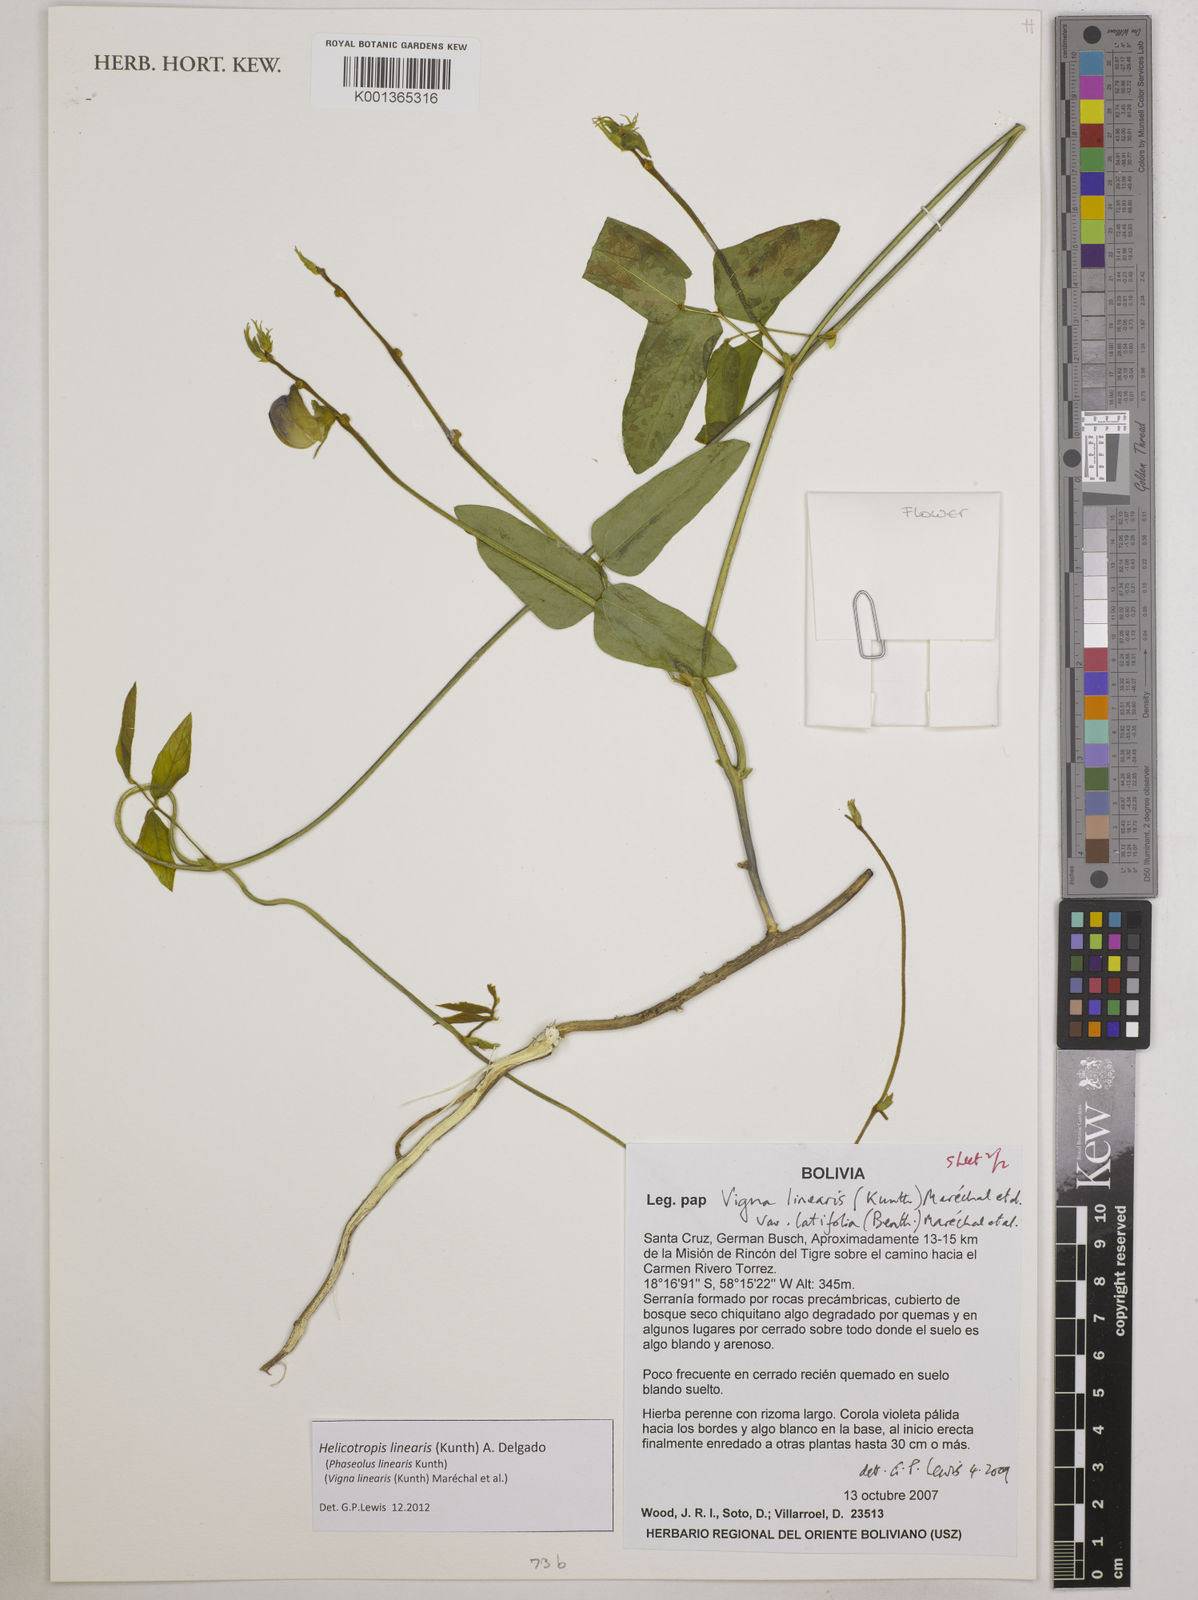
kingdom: Plantae
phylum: Tracheophyta
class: Magnoliopsida
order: Fabales
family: Fabaceae
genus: Helicotropis
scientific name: Helicotropis linearis
